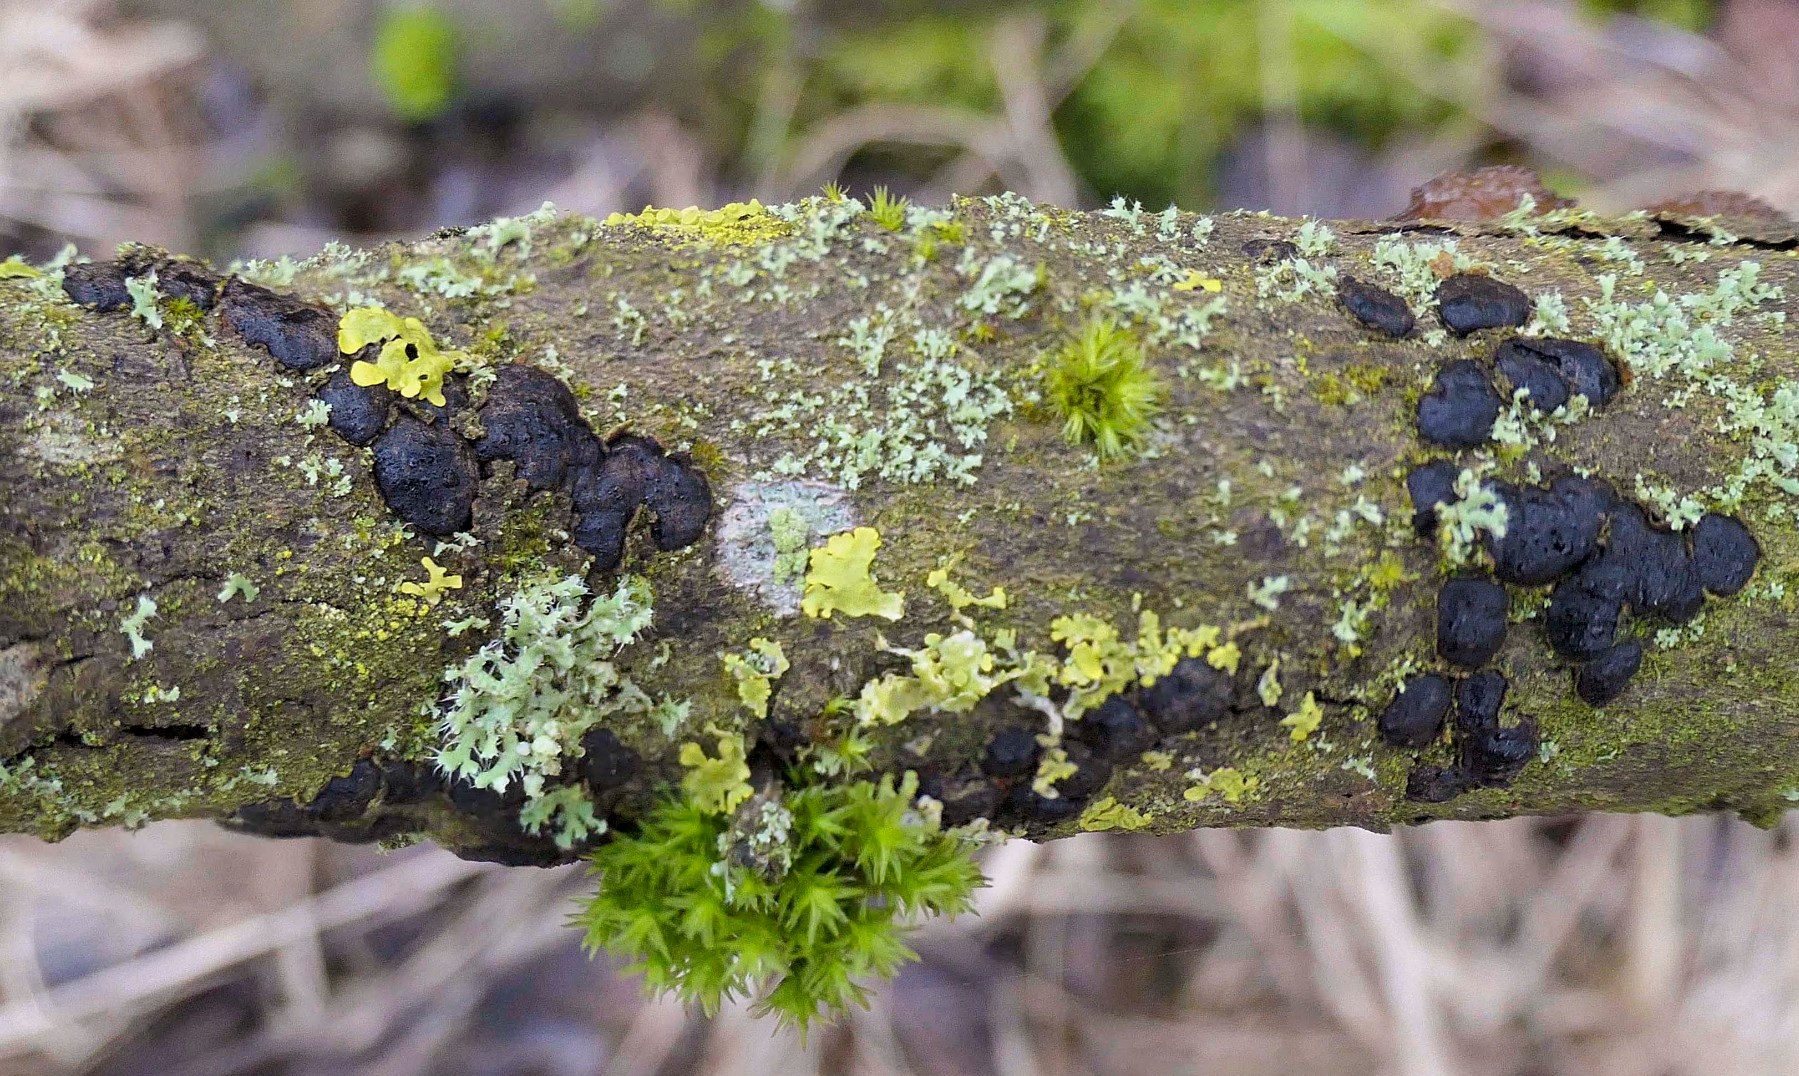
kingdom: Fungi
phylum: Ascomycota
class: Sordariomycetes
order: Xylariales
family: Diatrypaceae
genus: Diatrype
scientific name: Diatrype bullata
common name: pile-kulskorpe
